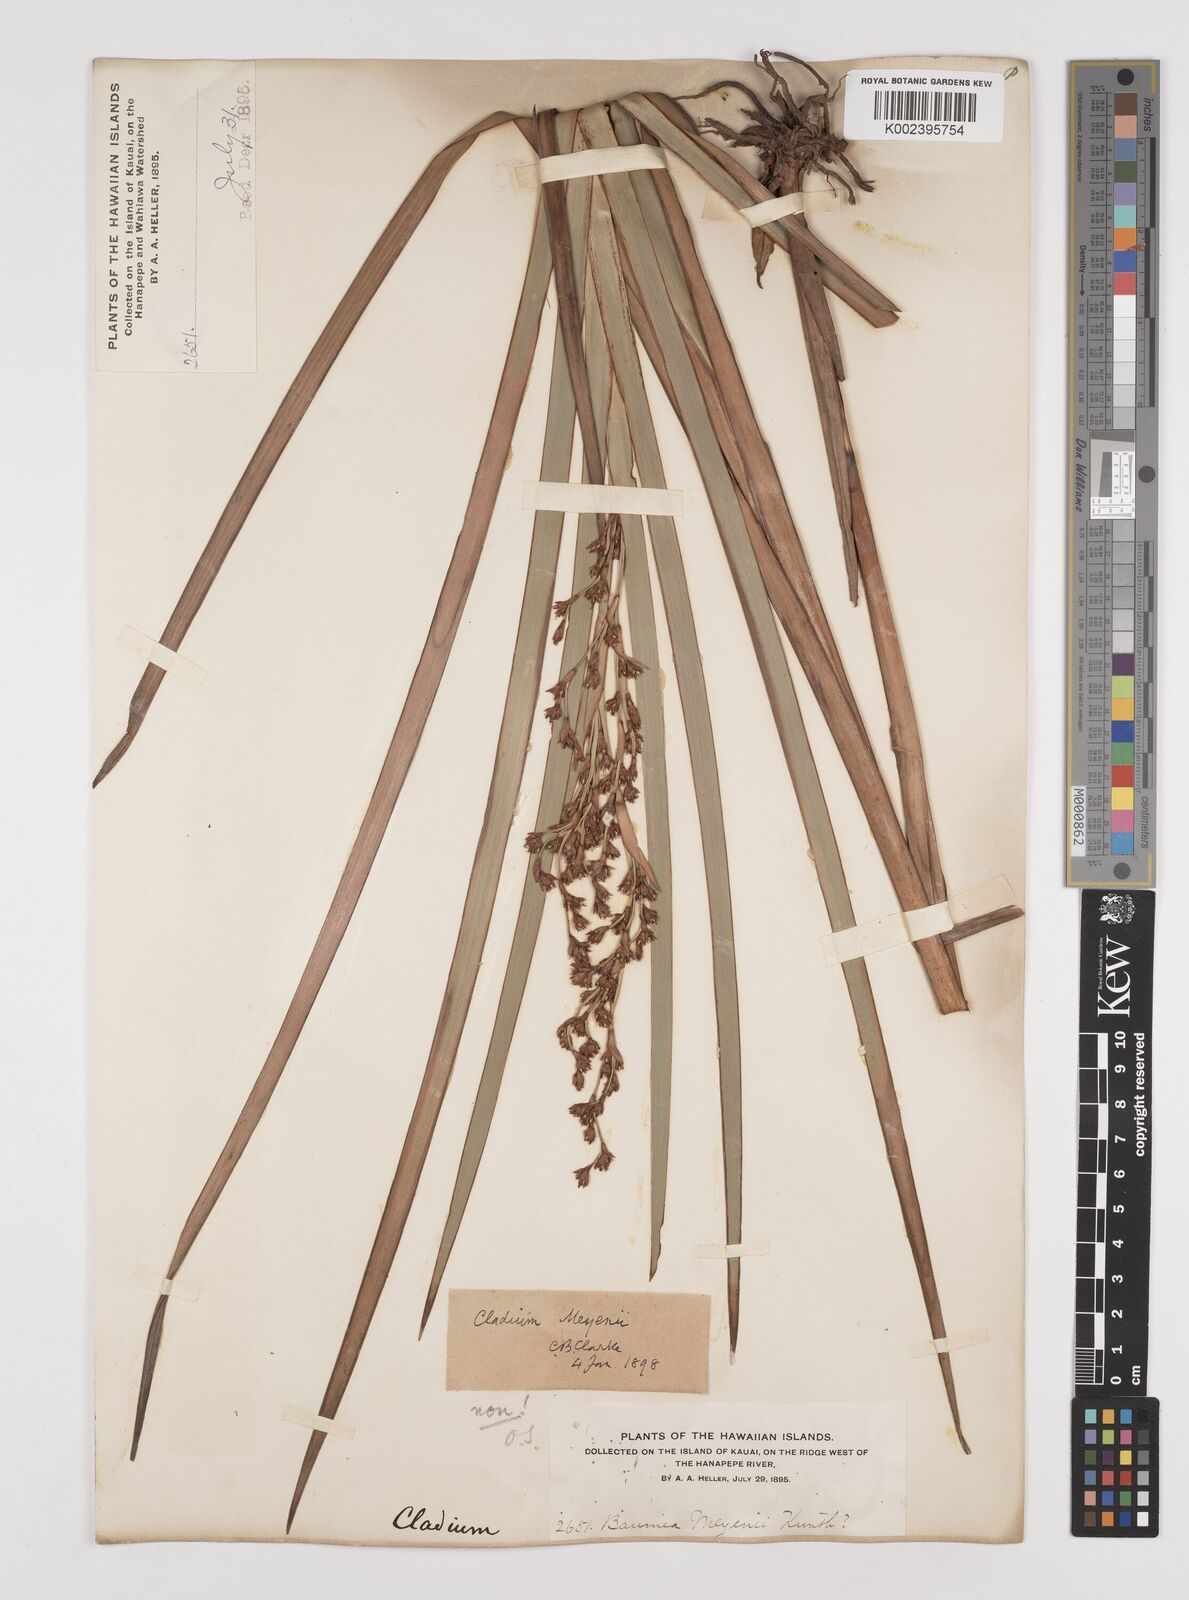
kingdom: Plantae
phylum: Tracheophyta
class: Liliopsida
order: Poales
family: Cyperaceae
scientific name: Cyperaceae
